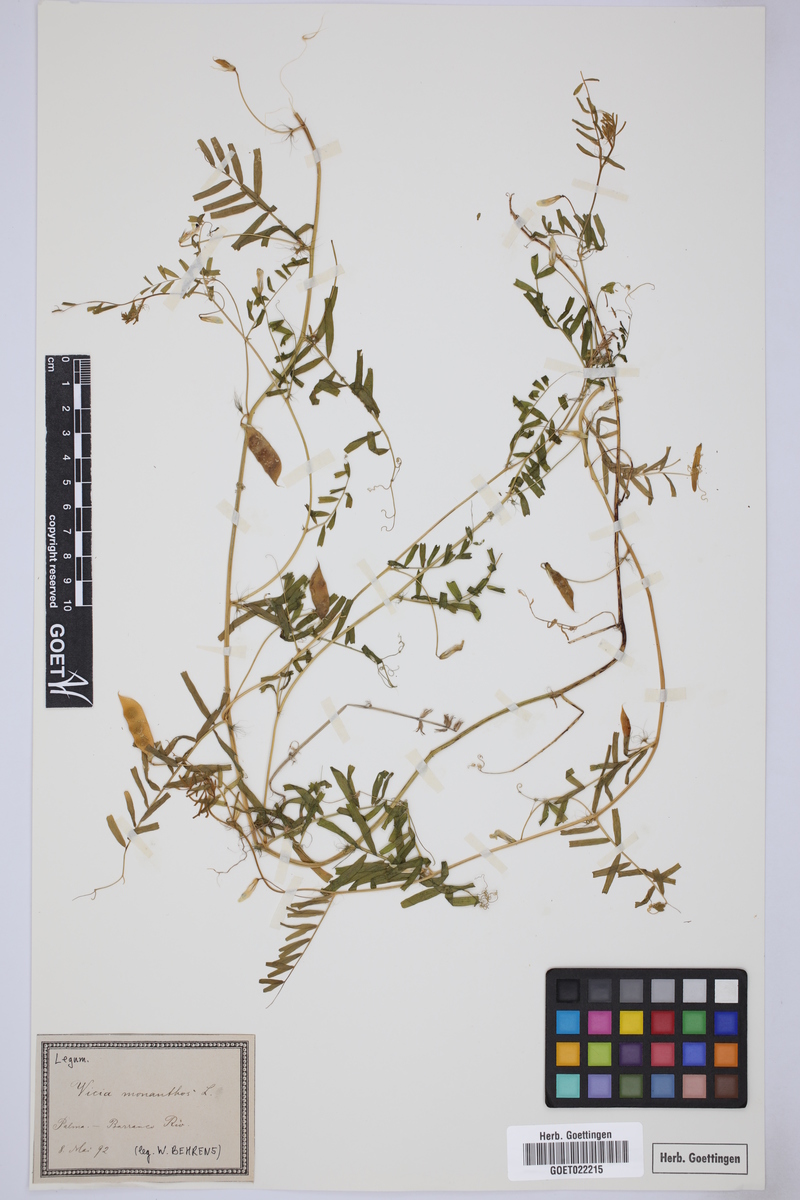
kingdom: Plantae
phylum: Tracheophyta
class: Magnoliopsida
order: Fabales
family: Fabaceae
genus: Vicia
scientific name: Vicia lutea
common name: Smooth yellow vetch
